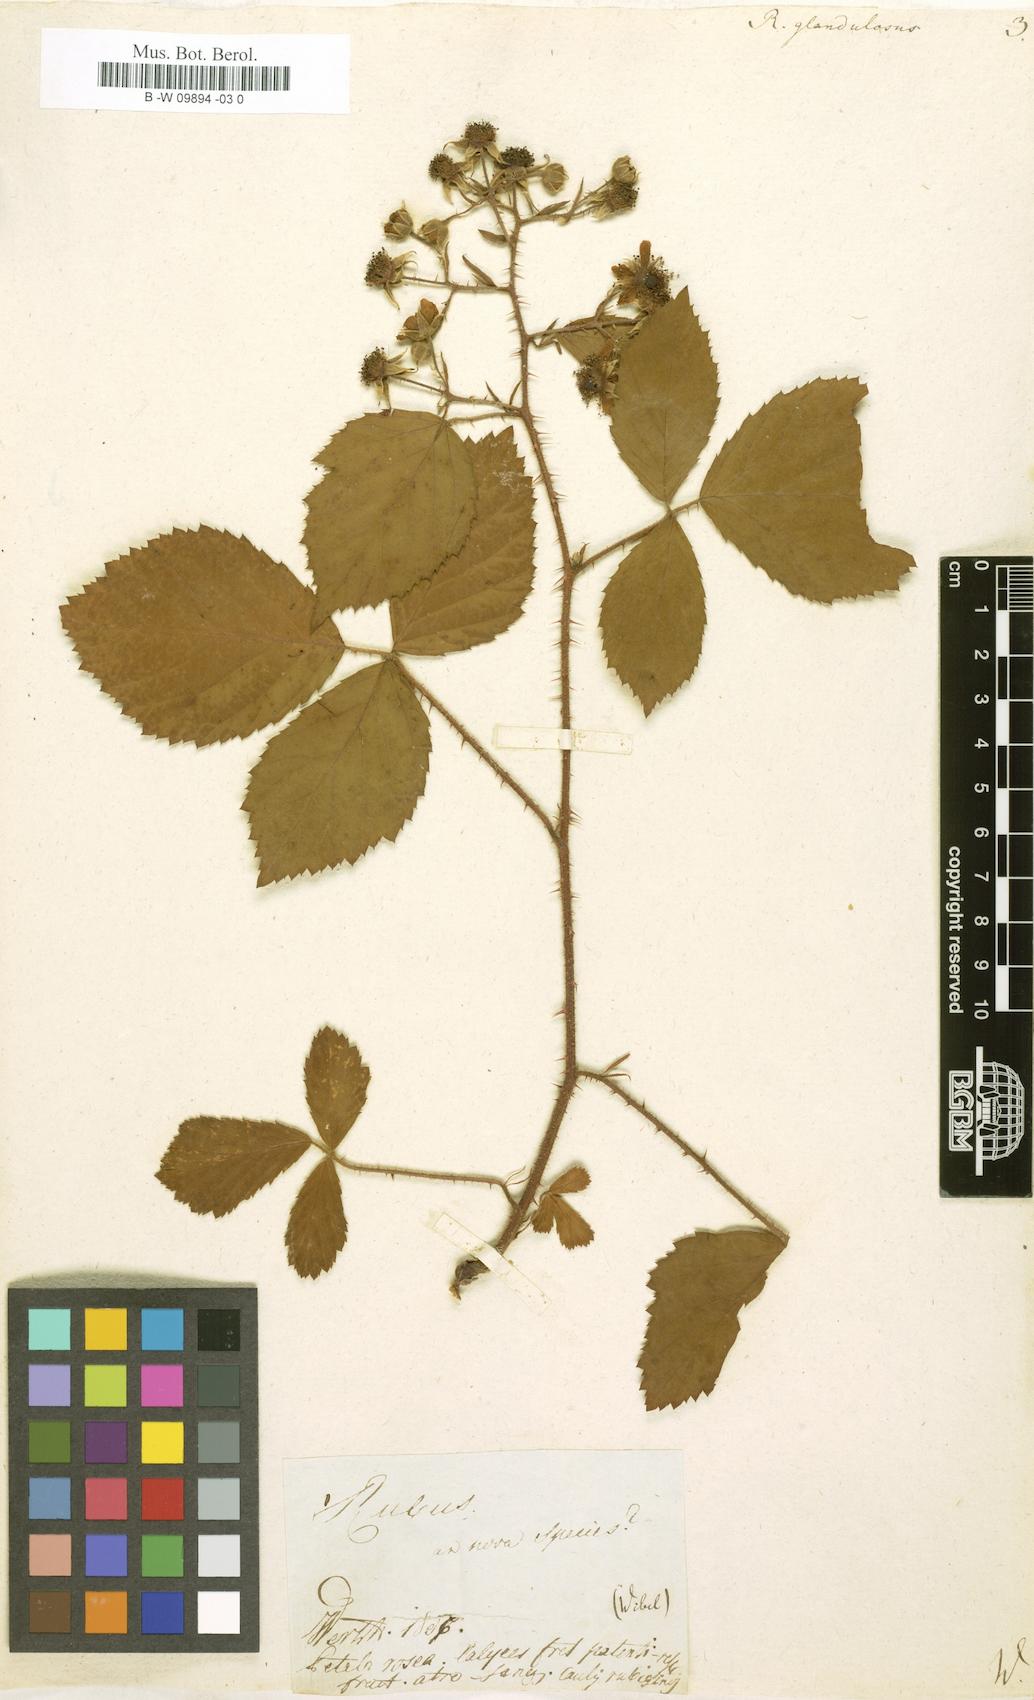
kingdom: Plantae
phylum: Tracheophyta
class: Magnoliopsida
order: Rosales
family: Rosaceae
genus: Rubus
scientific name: Rubus
